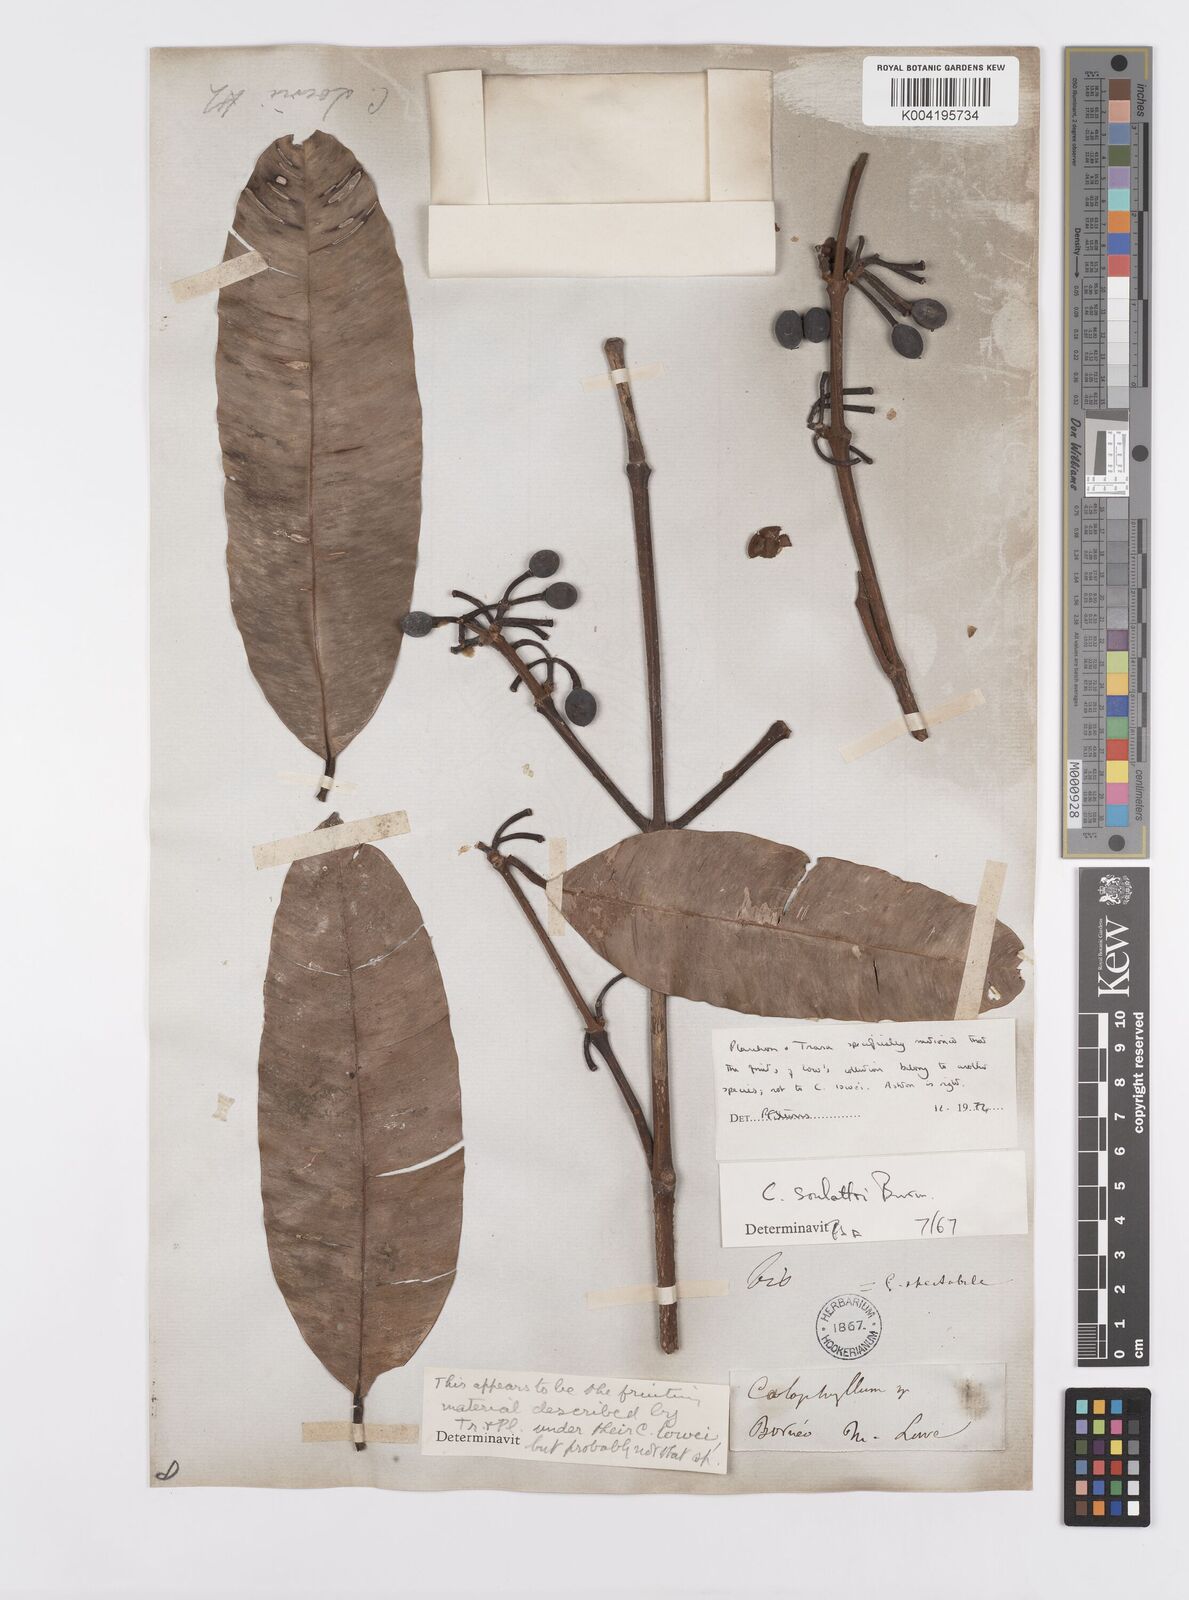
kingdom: Plantae
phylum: Tracheophyta
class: Magnoliopsida
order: Malpighiales
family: Calophyllaceae
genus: Calophyllum
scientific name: Calophyllum soulattri
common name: Bitangoor boonot
